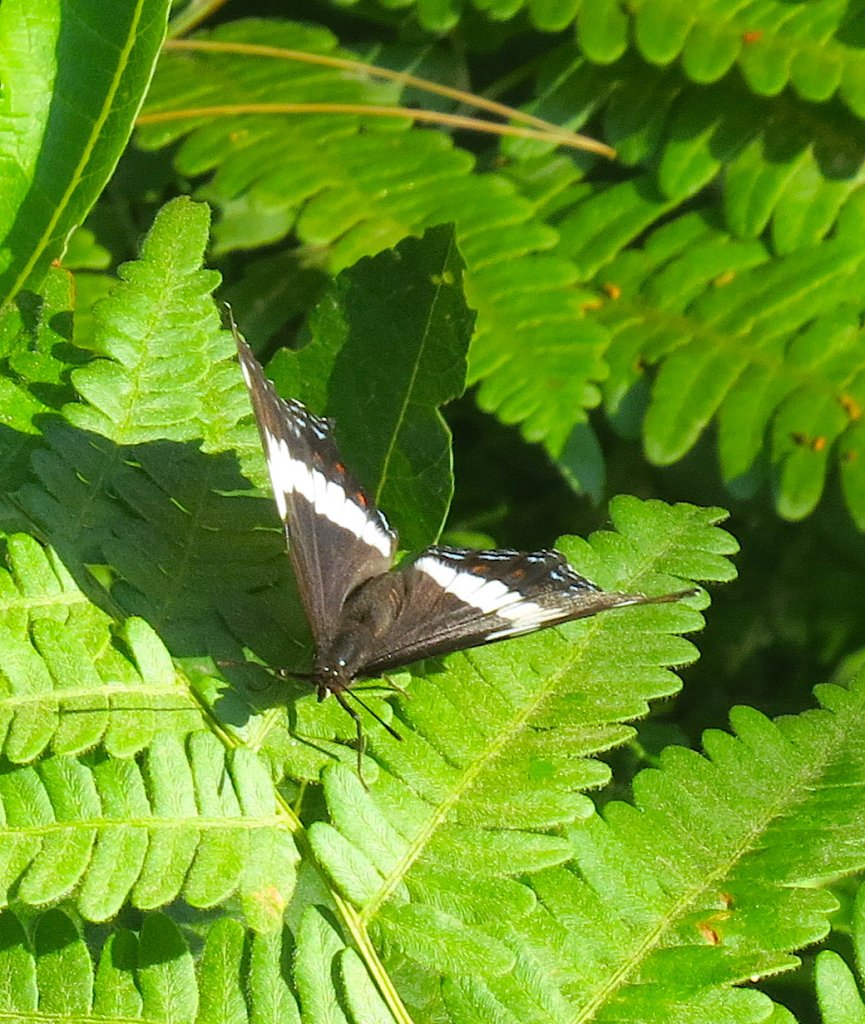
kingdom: Animalia
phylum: Arthropoda
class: Insecta
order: Lepidoptera
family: Nymphalidae
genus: Limenitis
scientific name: Limenitis arthemis
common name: Red-spotted Admiral
